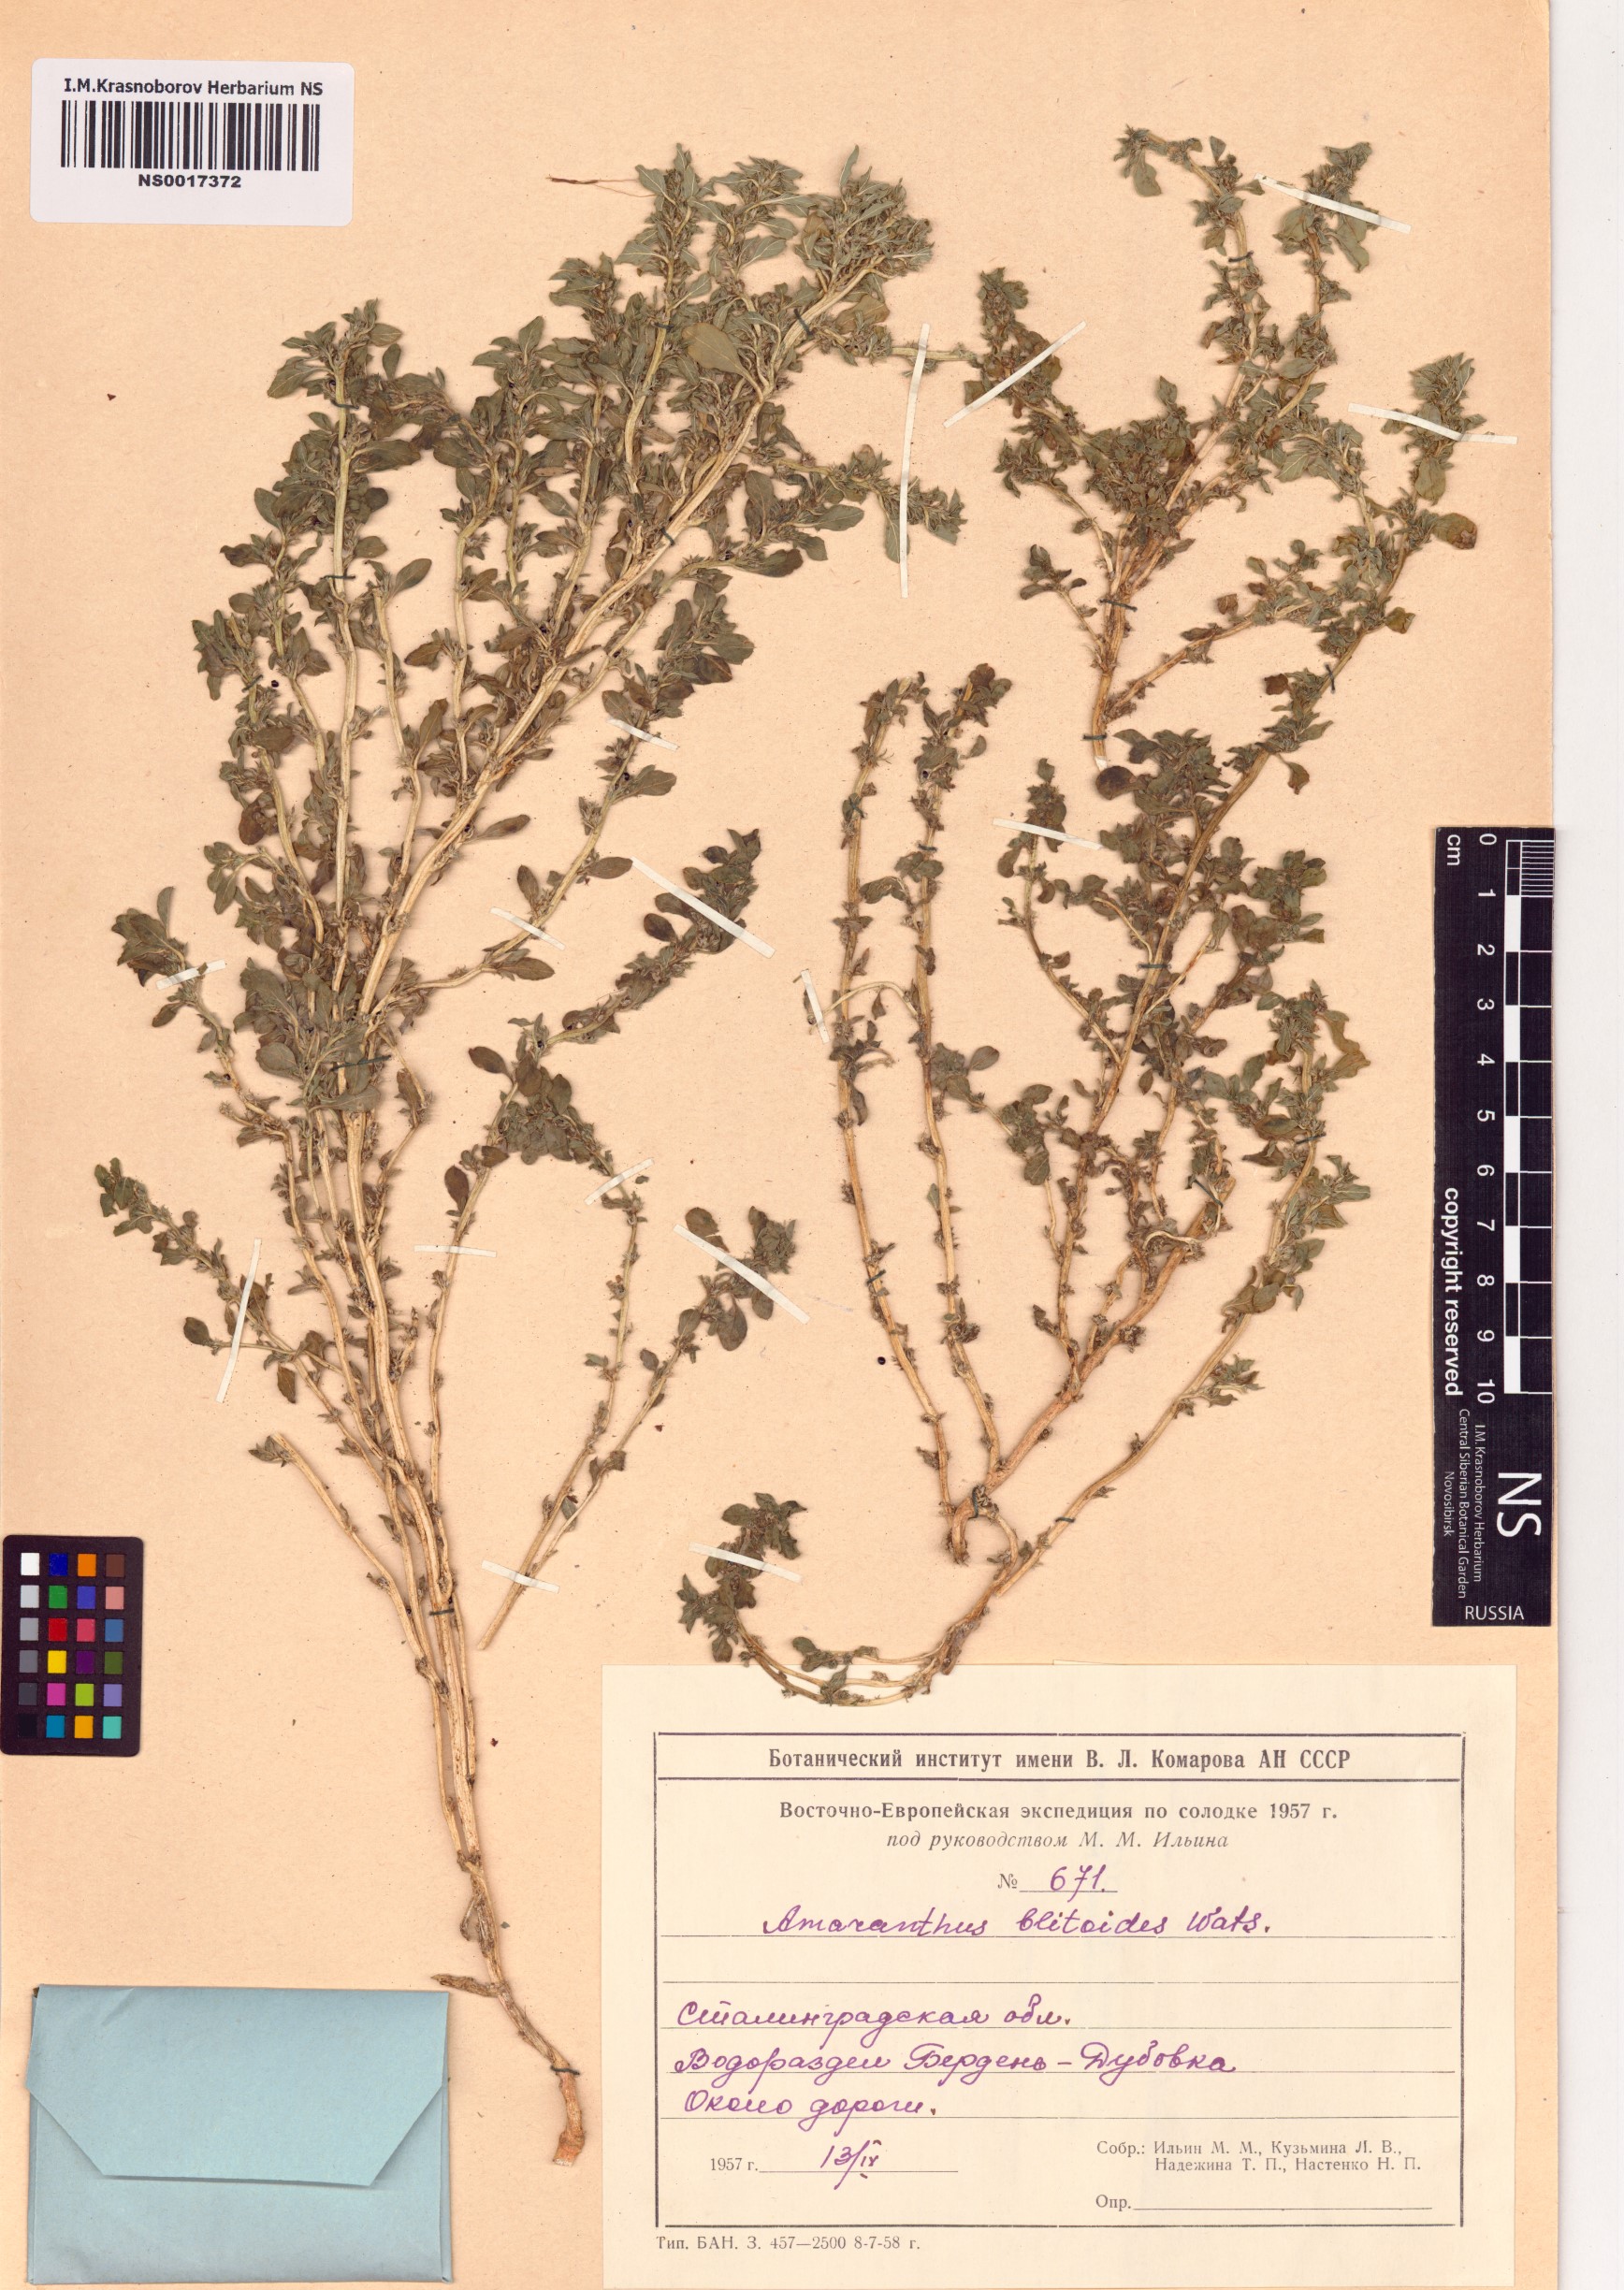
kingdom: Plantae
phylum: Tracheophyta
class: Magnoliopsida
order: Caryophyllales
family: Amaranthaceae
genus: Amaranthus
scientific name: Amaranthus blitoides
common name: Prostrate pigweed
